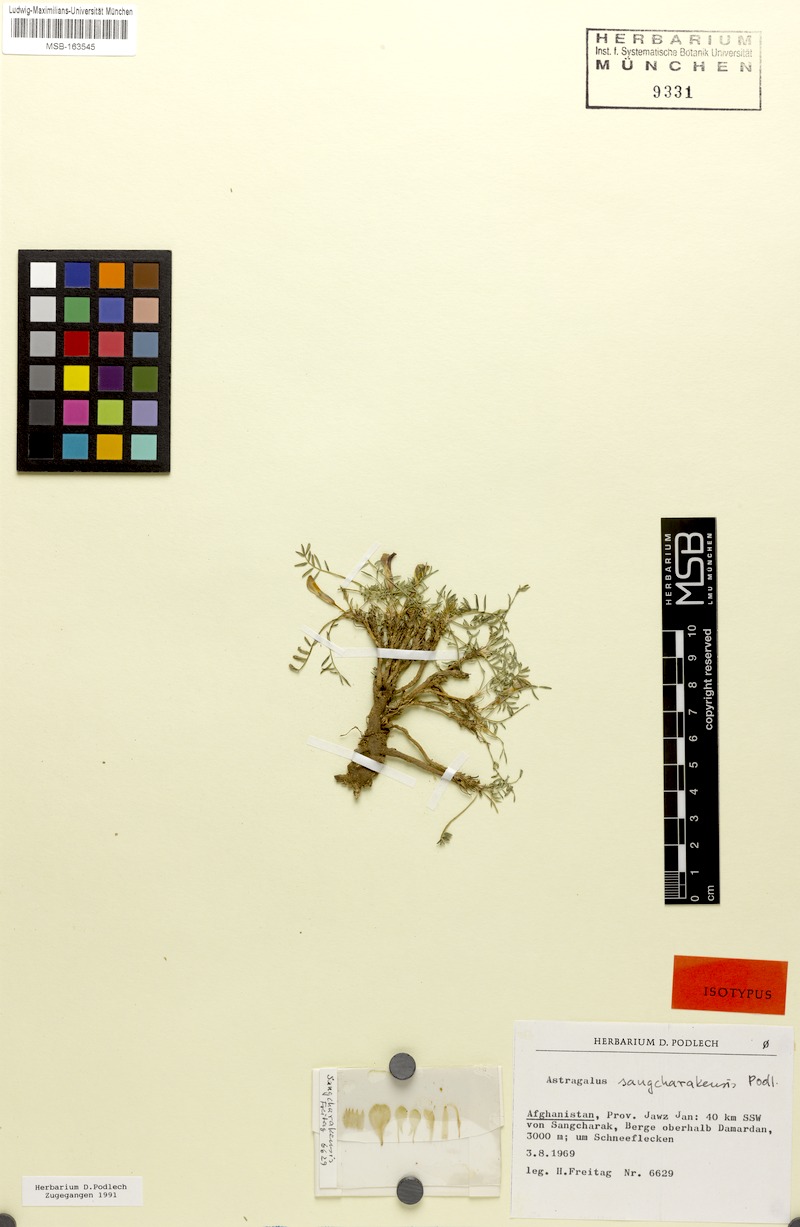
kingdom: Plantae
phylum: Tracheophyta
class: Magnoliopsida
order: Fabales
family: Fabaceae
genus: Astragalus
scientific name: Astragalus sangcharakensis
